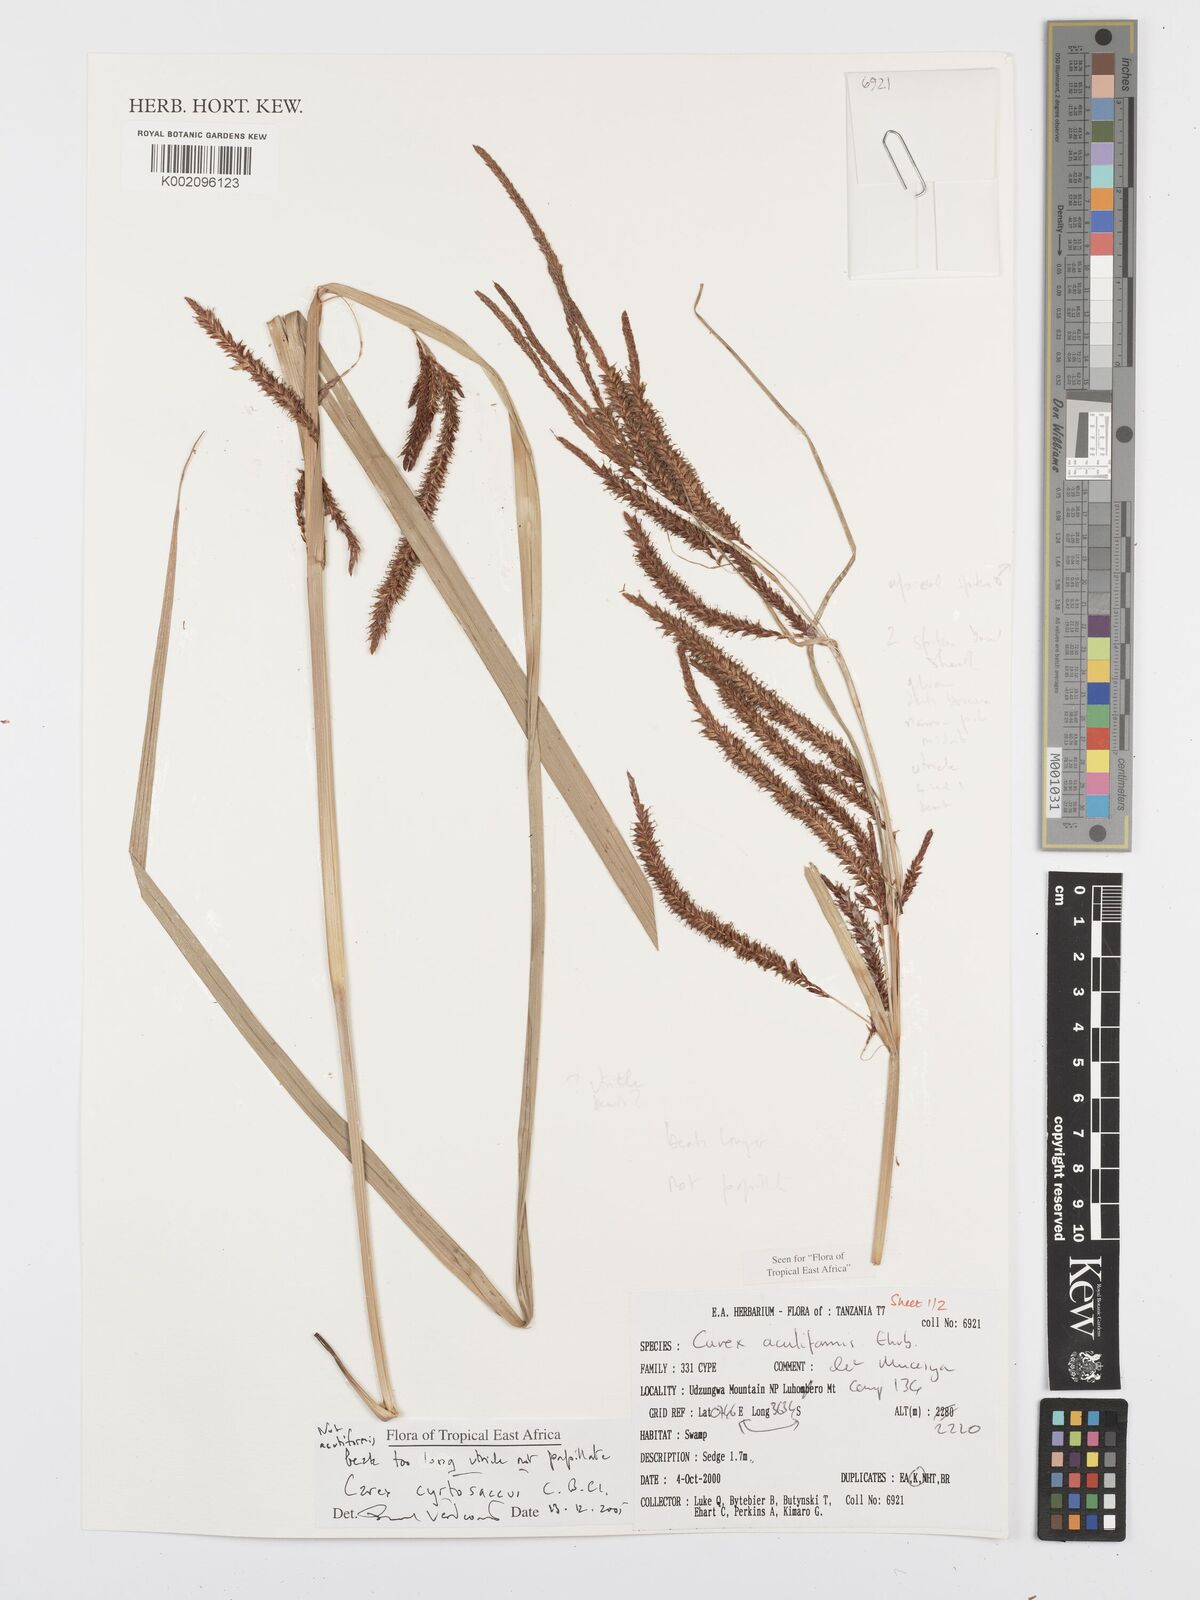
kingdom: Plantae
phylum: Tracheophyta
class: Liliopsida
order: Poales
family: Cyperaceae
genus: Carex
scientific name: Carex vallis-rosetto
